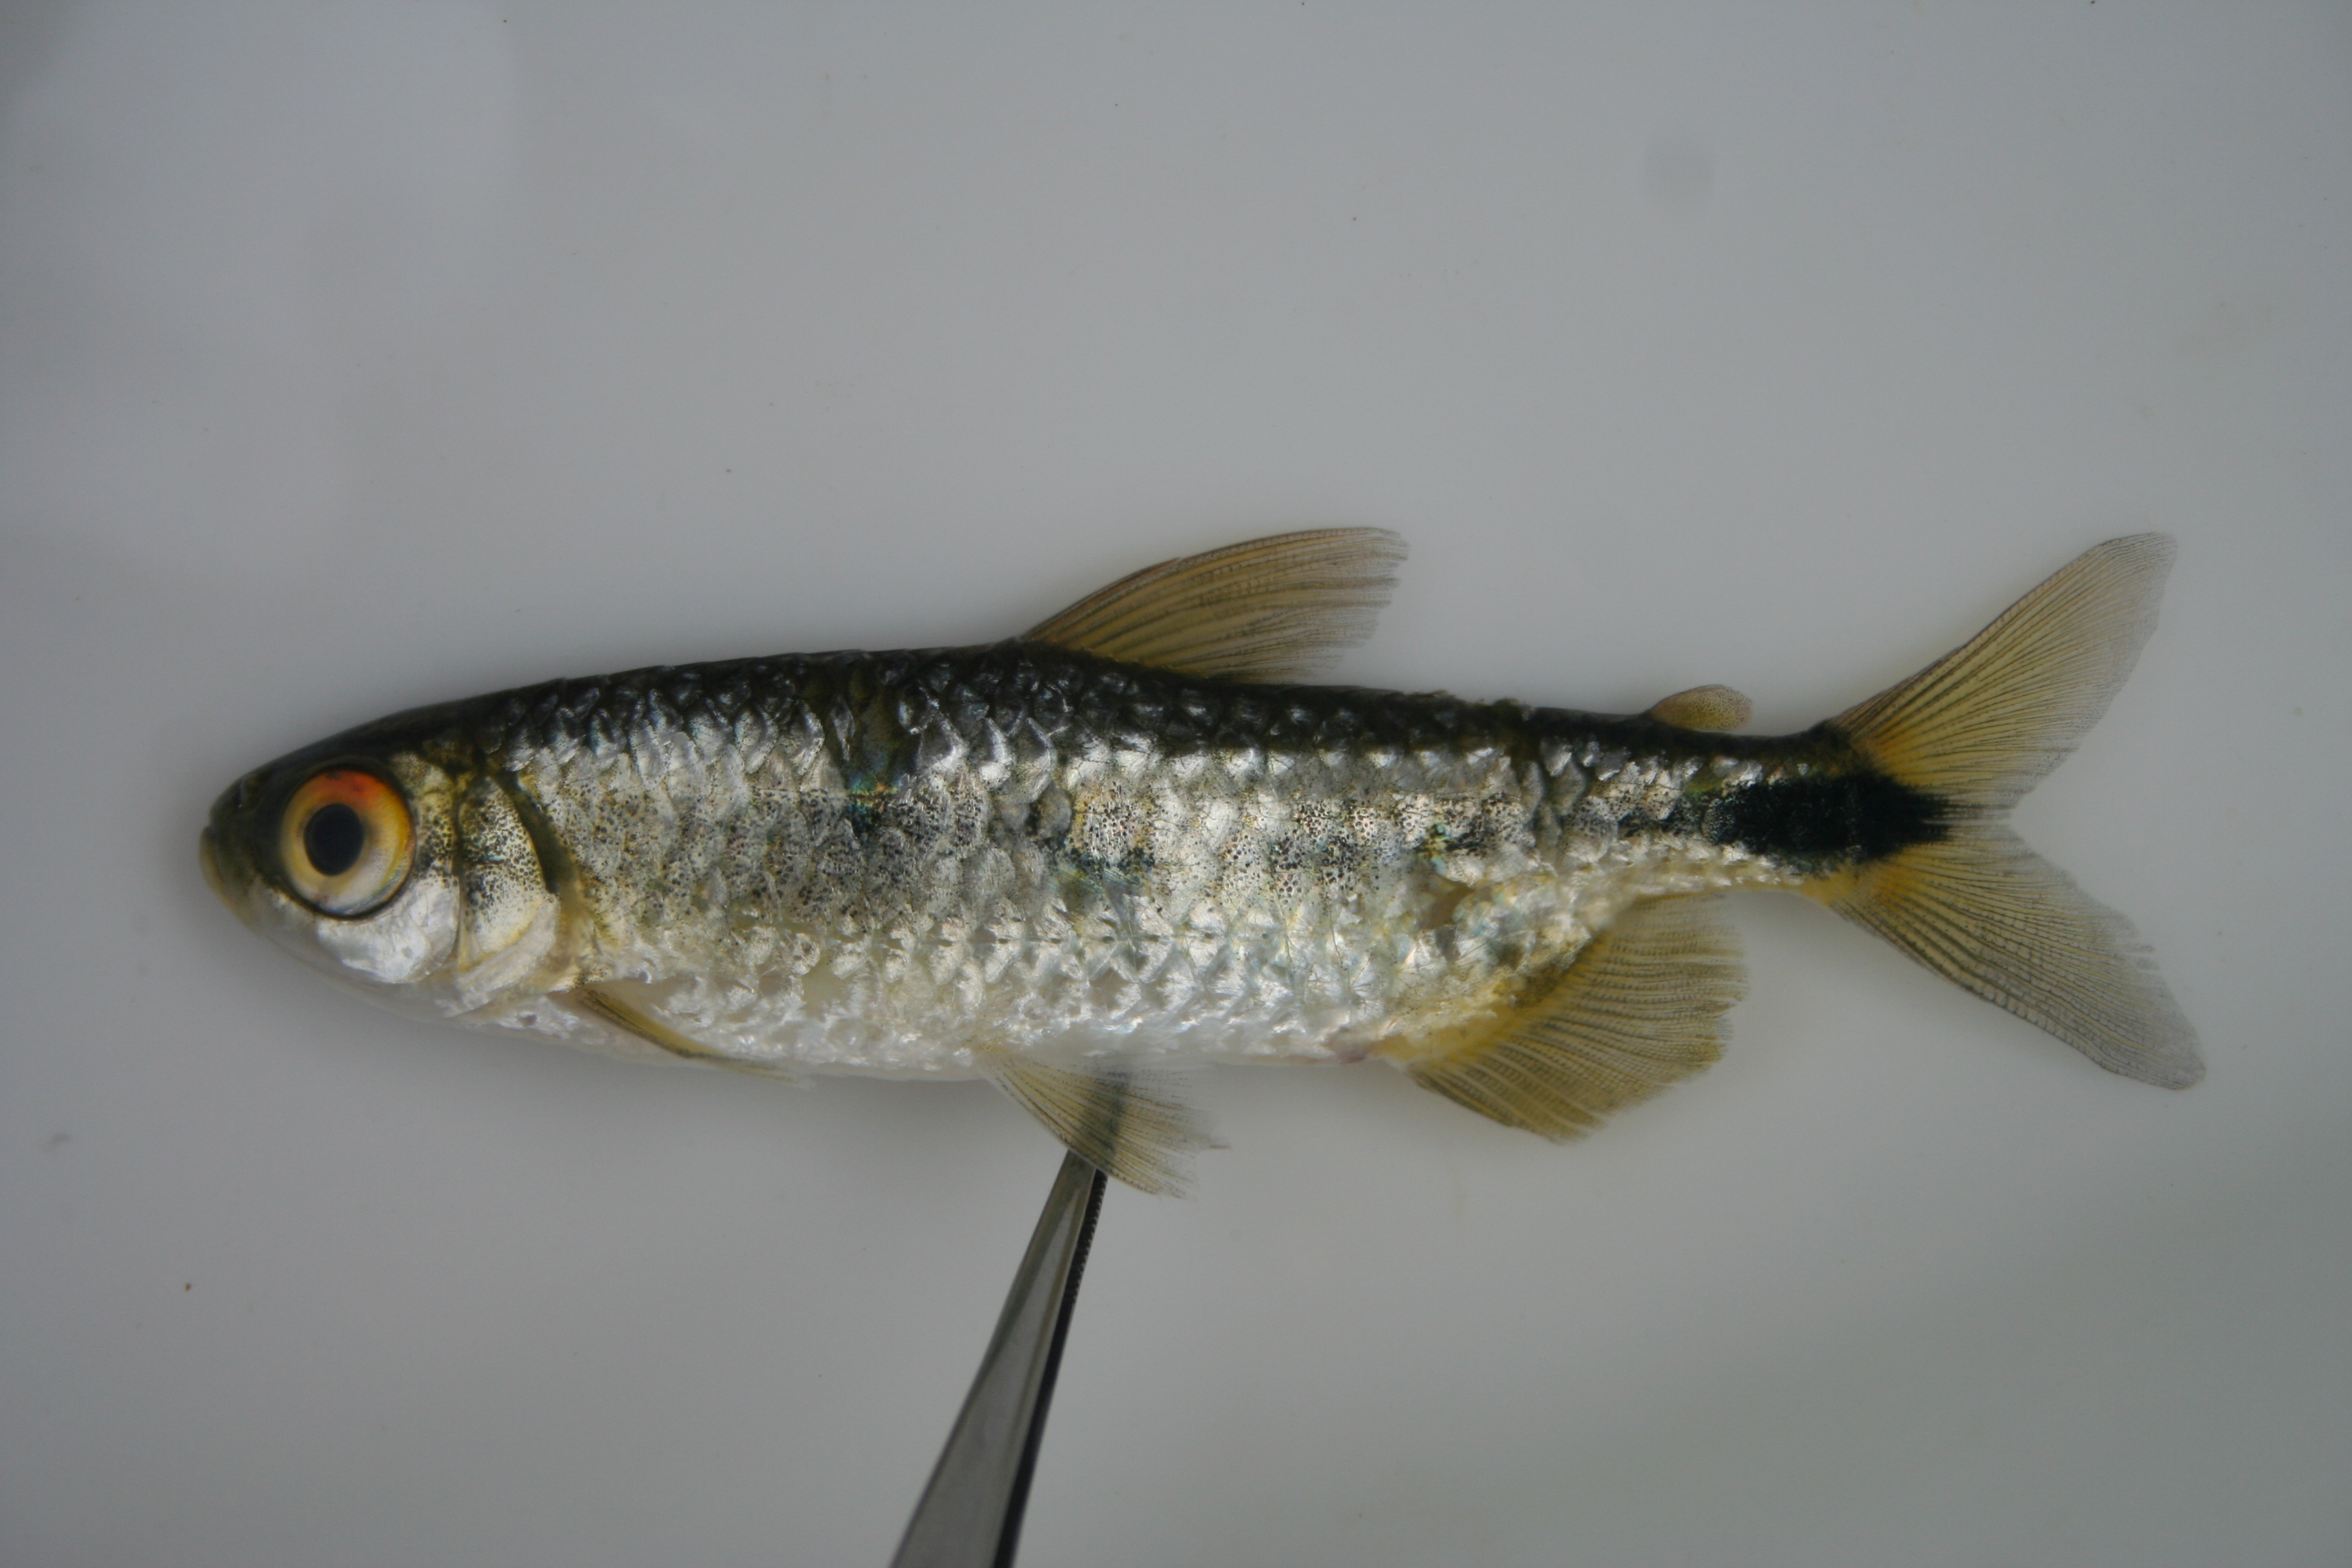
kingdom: Animalia
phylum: Chordata
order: Characiformes
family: Alestidae
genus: Brycinus
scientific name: Brycinus lateralis
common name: Striped robber
